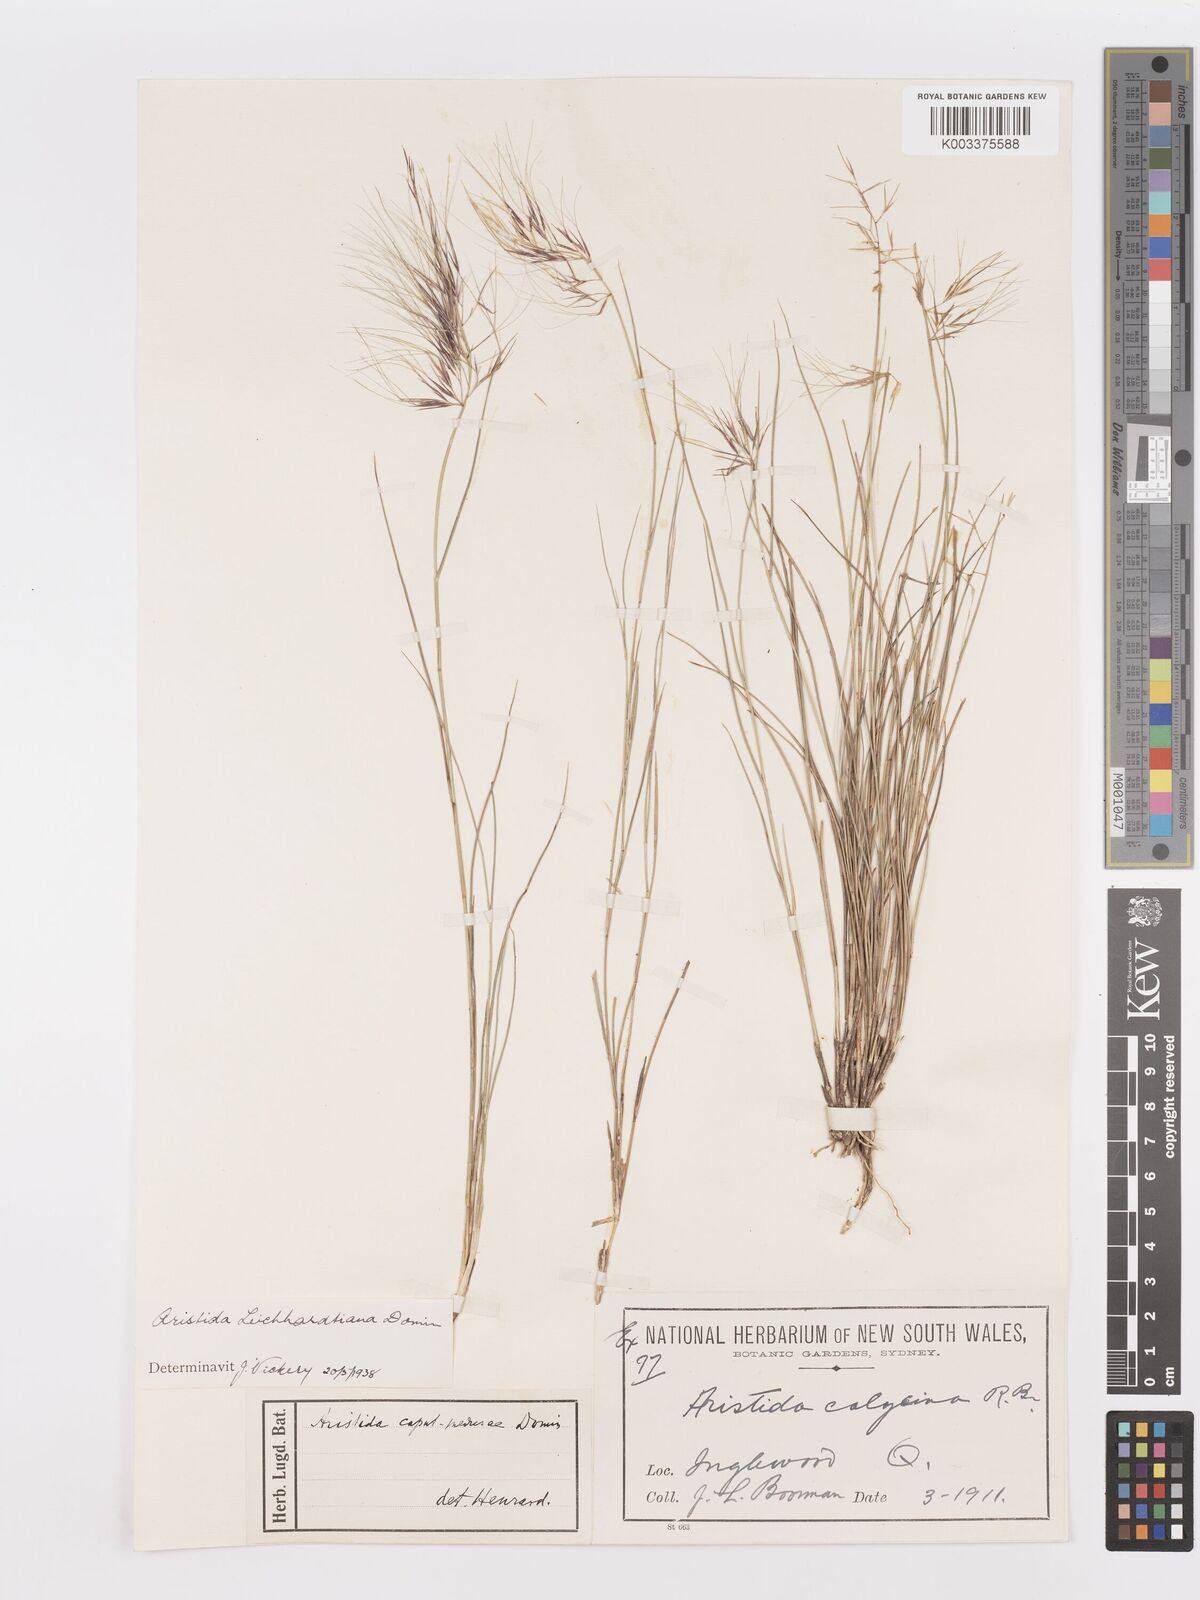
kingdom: Plantae
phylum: Tracheophyta
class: Liliopsida
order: Poales
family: Poaceae
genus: Aristida
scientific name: Aristida leichhardtiana
